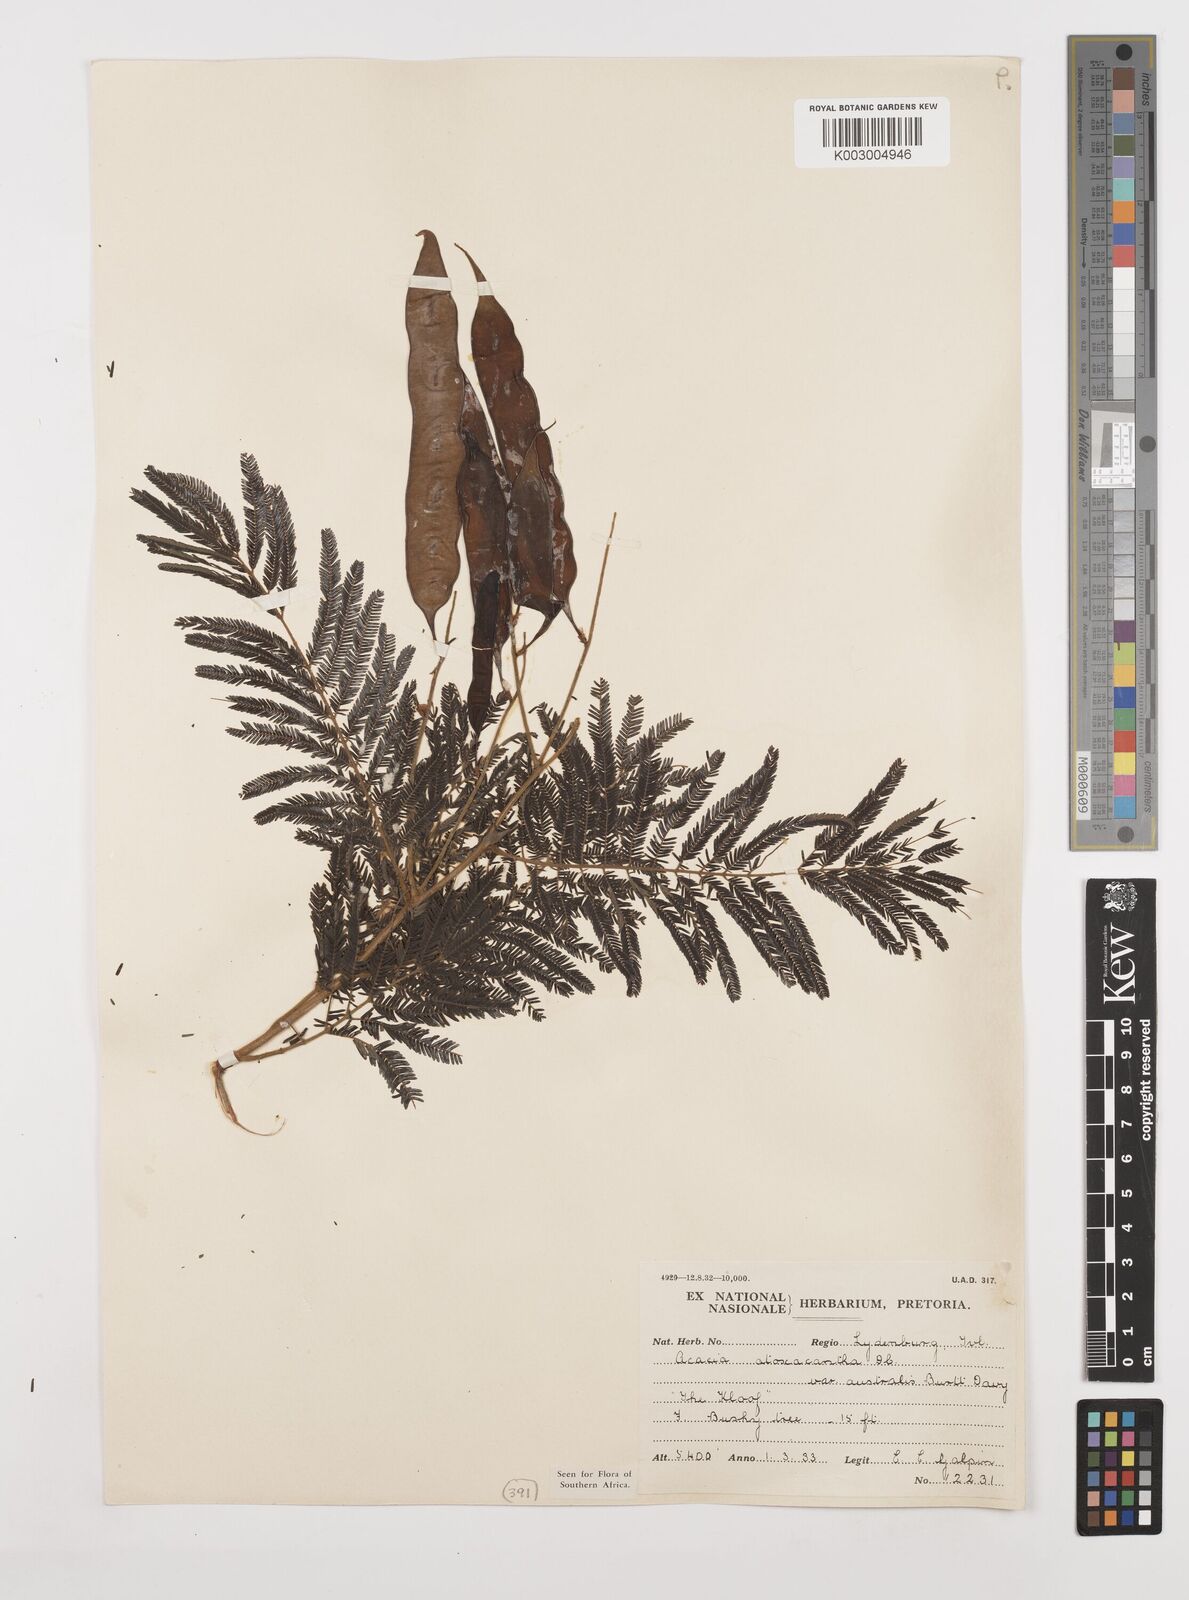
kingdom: Plantae
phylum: Tracheophyta
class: Magnoliopsida
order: Fabales
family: Fabaceae
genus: Senegalia
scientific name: Senegalia ataxacantha
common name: Flame acacia
